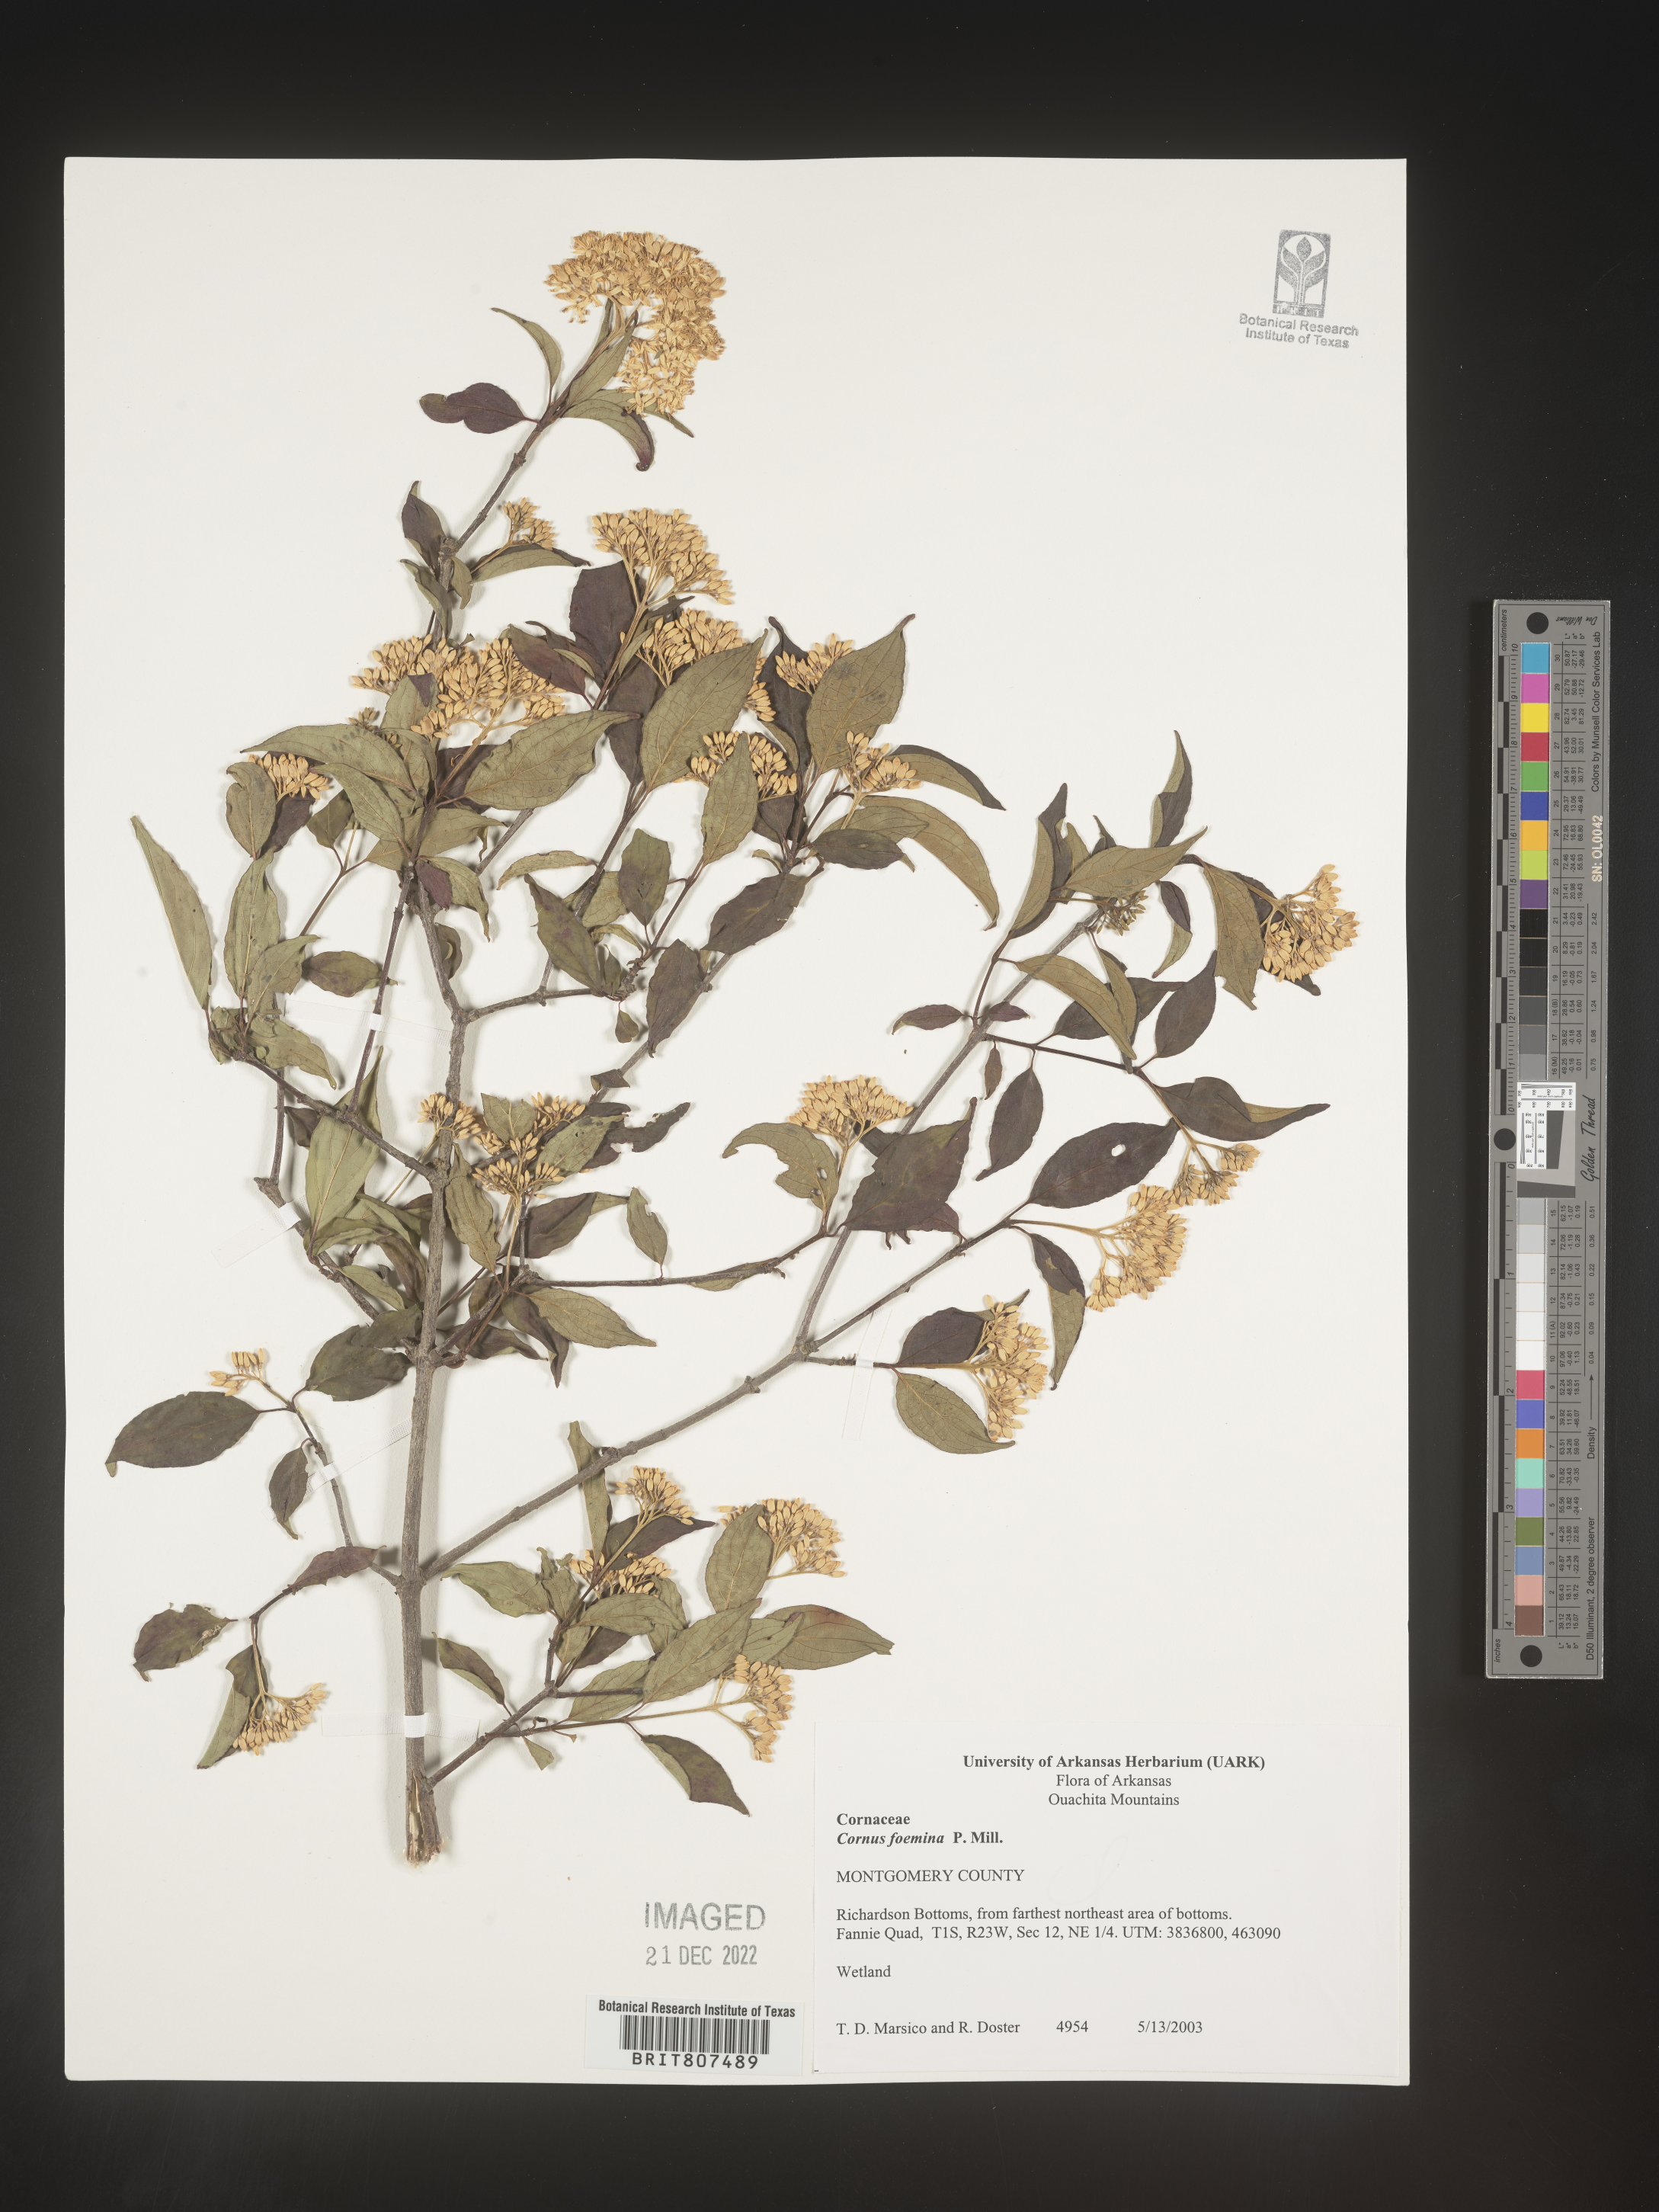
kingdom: Plantae
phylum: Tracheophyta
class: Magnoliopsida
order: Cornales
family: Cornaceae
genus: Cornus
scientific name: Cornus foemina
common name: Swamp dogwood
